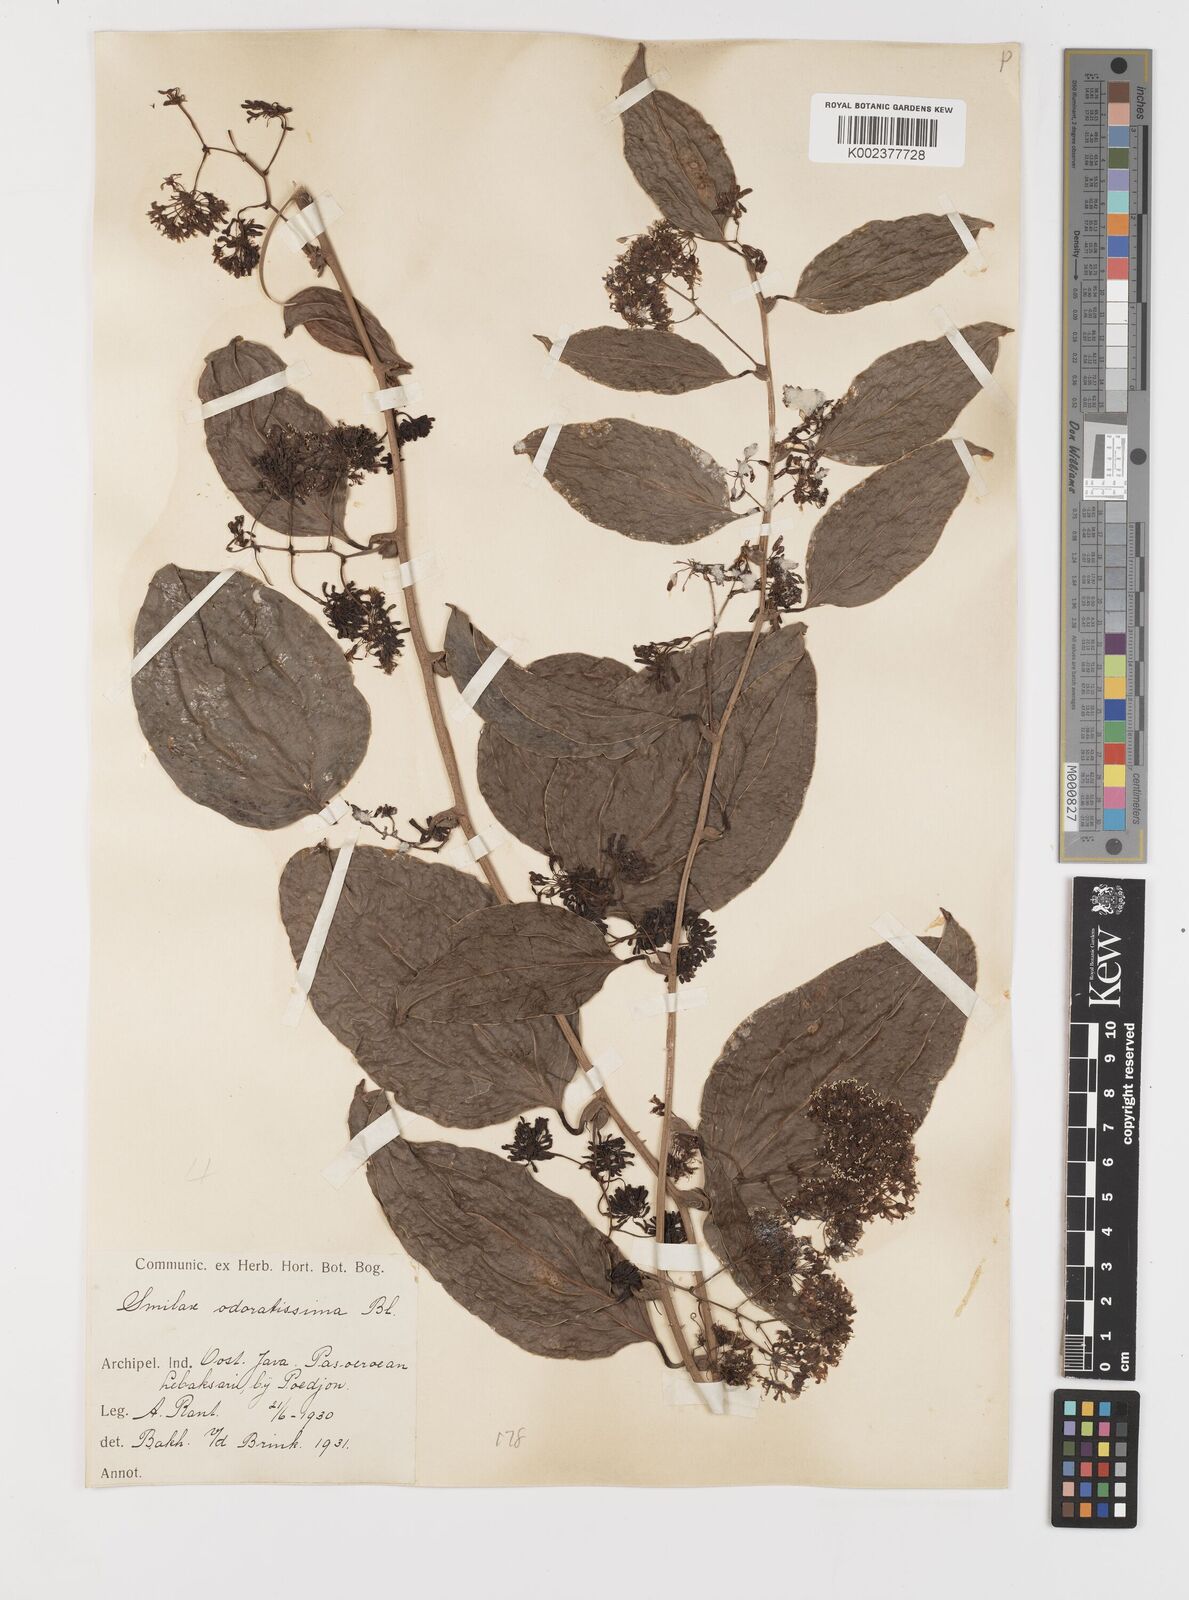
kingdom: Plantae
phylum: Tracheophyta
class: Liliopsida
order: Liliales
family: Smilacaceae
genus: Smilax
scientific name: Smilax odoratissima
